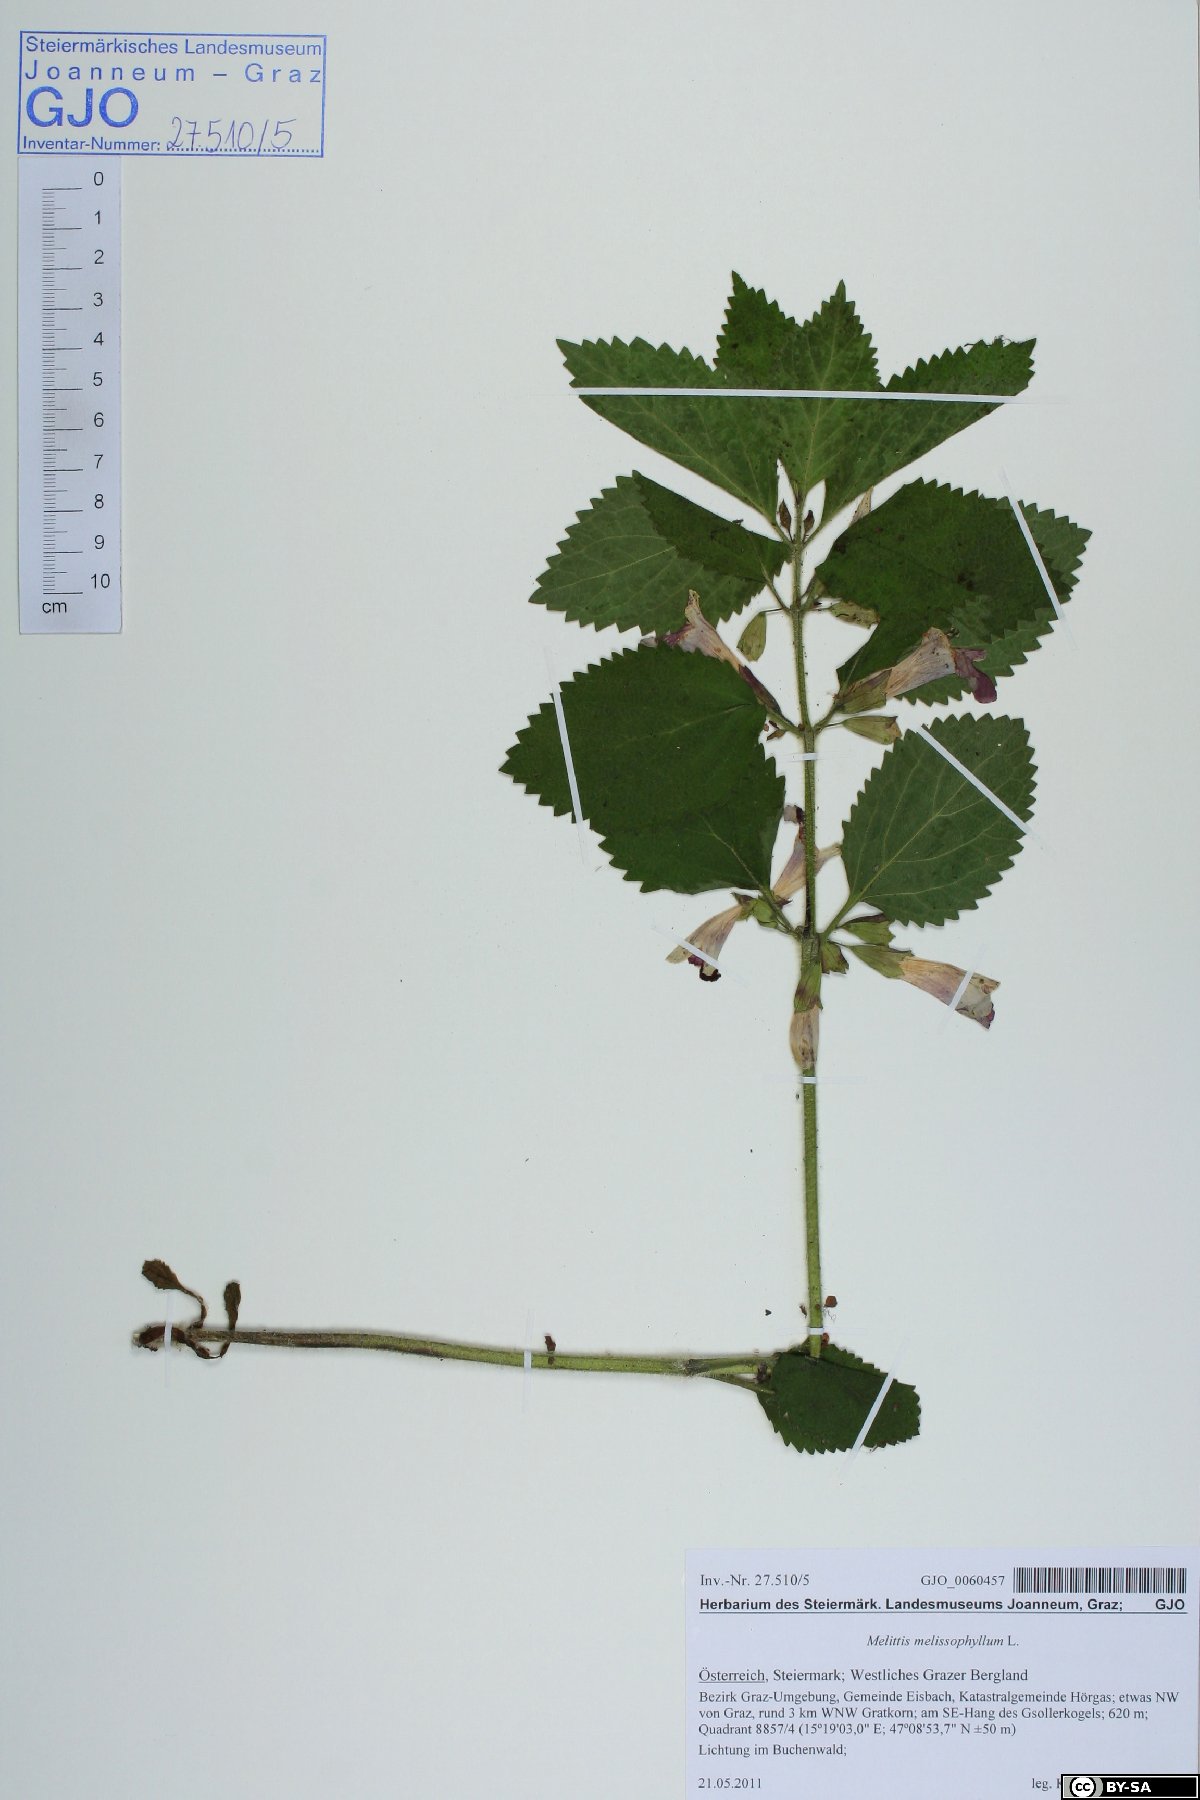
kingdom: Plantae
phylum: Tracheophyta
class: Magnoliopsida
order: Lamiales
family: Lamiaceae
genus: Melittis
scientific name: Melittis melissophyllum
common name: Bastard balm
